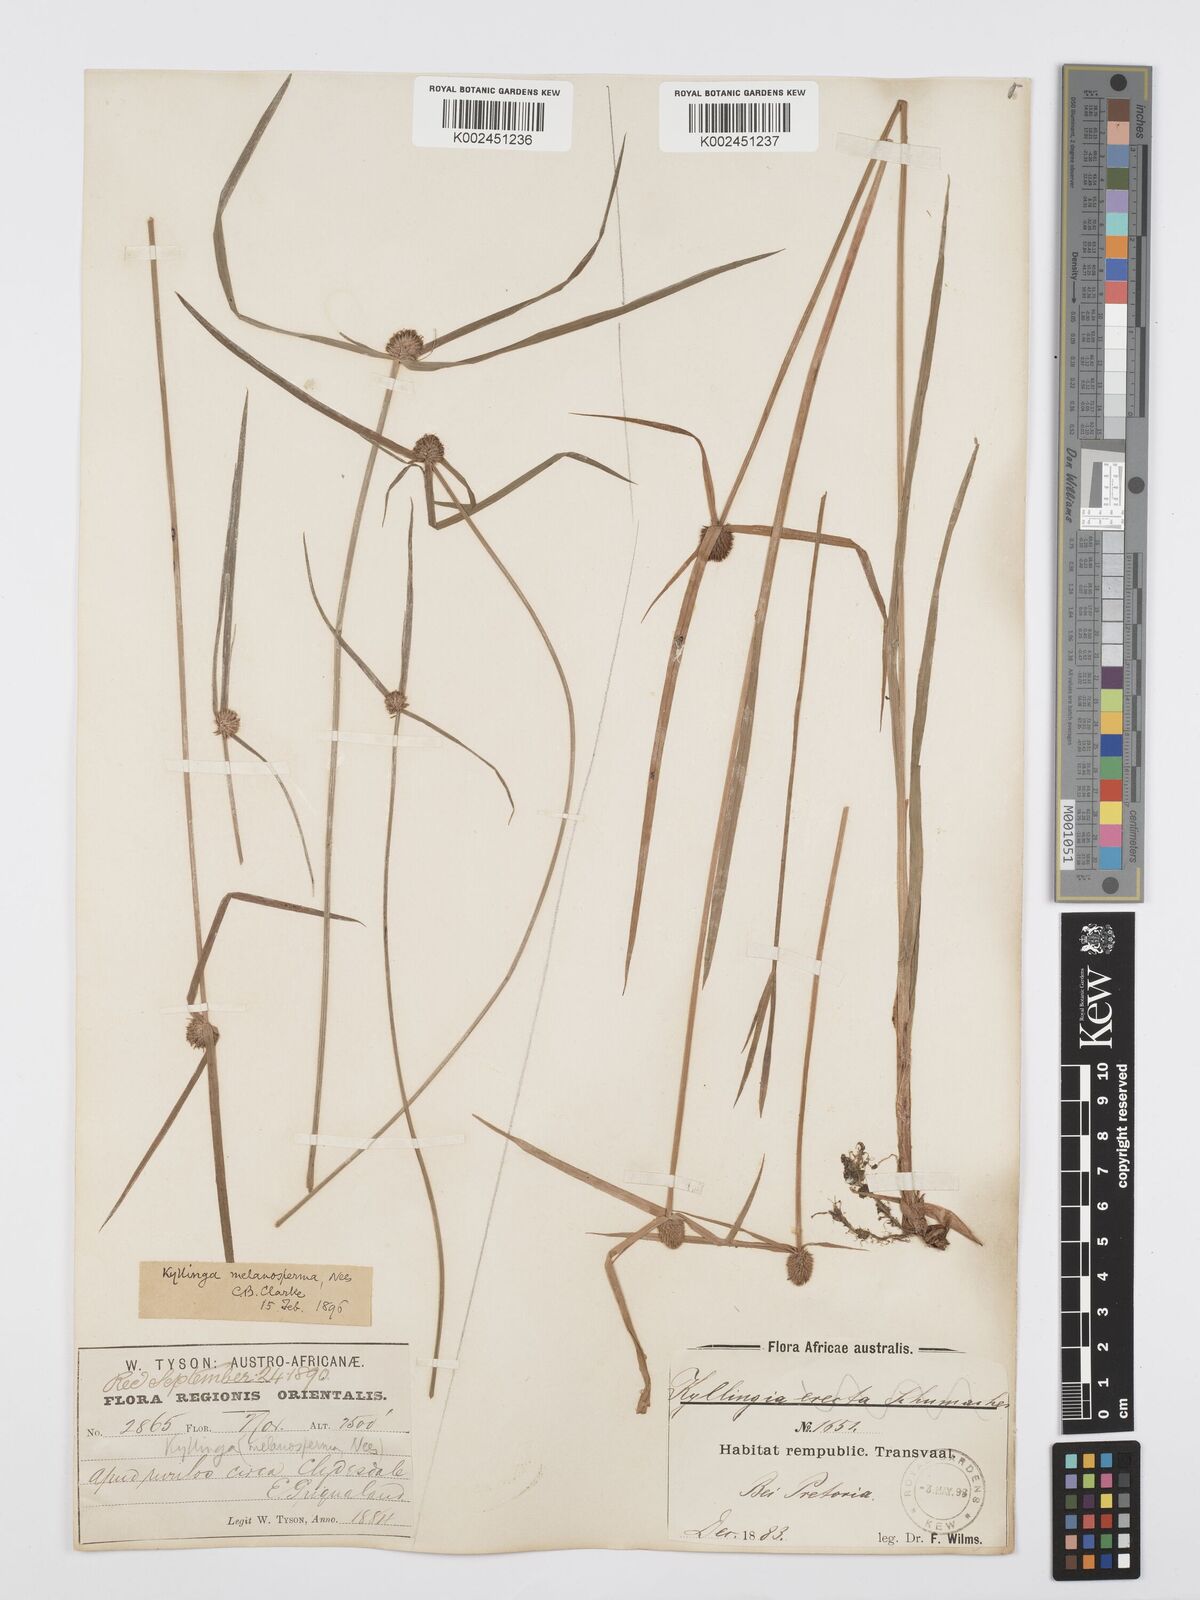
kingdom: Plantae
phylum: Tracheophyta
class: Liliopsida
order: Poales
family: Cyperaceae
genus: Cyperus
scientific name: Cyperus melanospermus
